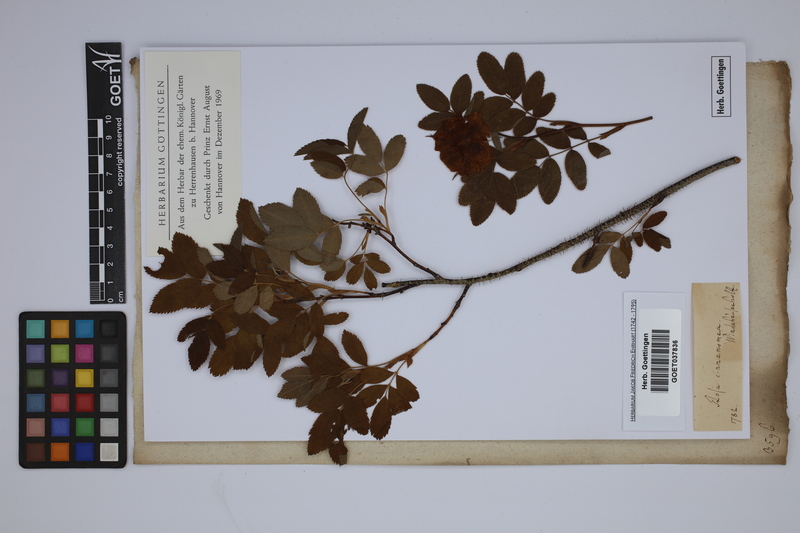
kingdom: Plantae
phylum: Tracheophyta
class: Magnoliopsida
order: Rosales
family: Rosaceae
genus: Rosa
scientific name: Rosa cinnamomea
